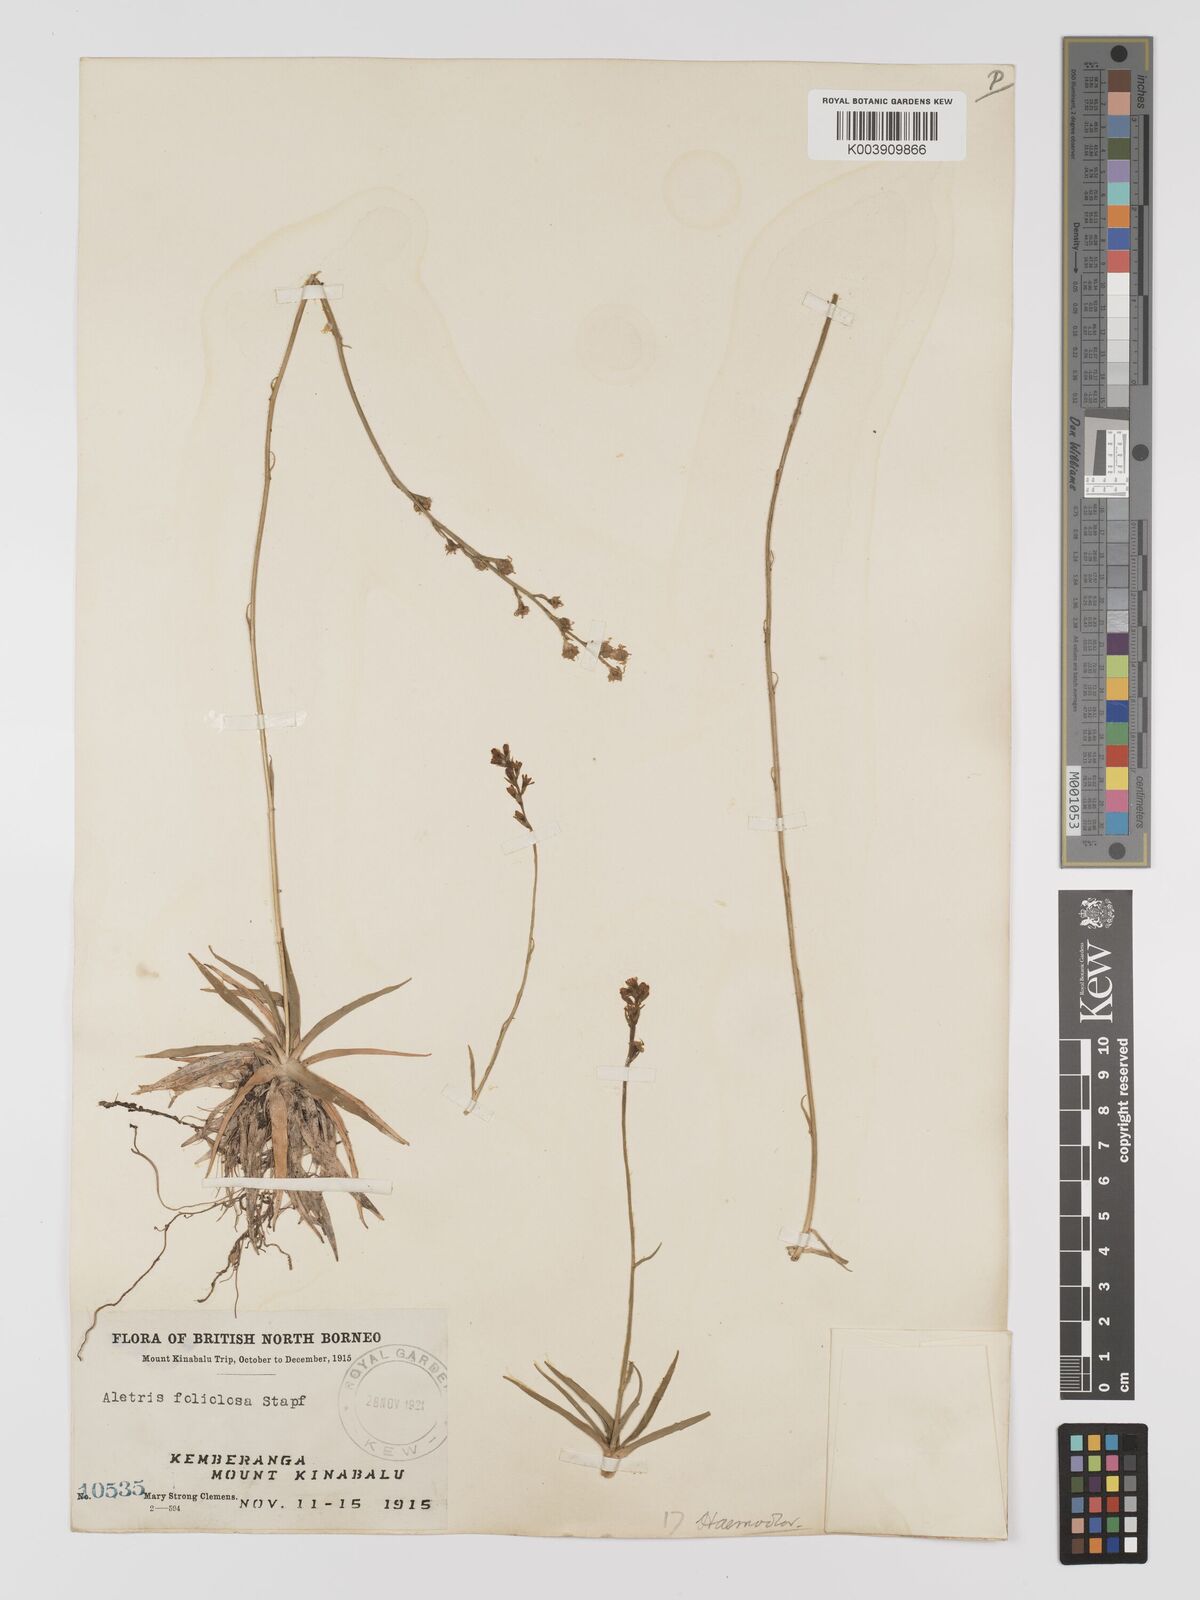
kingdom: Plantae
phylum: Tracheophyta
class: Liliopsida
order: Dioscoreales
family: Nartheciaceae
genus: Aletris
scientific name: Aletris foliolosa
